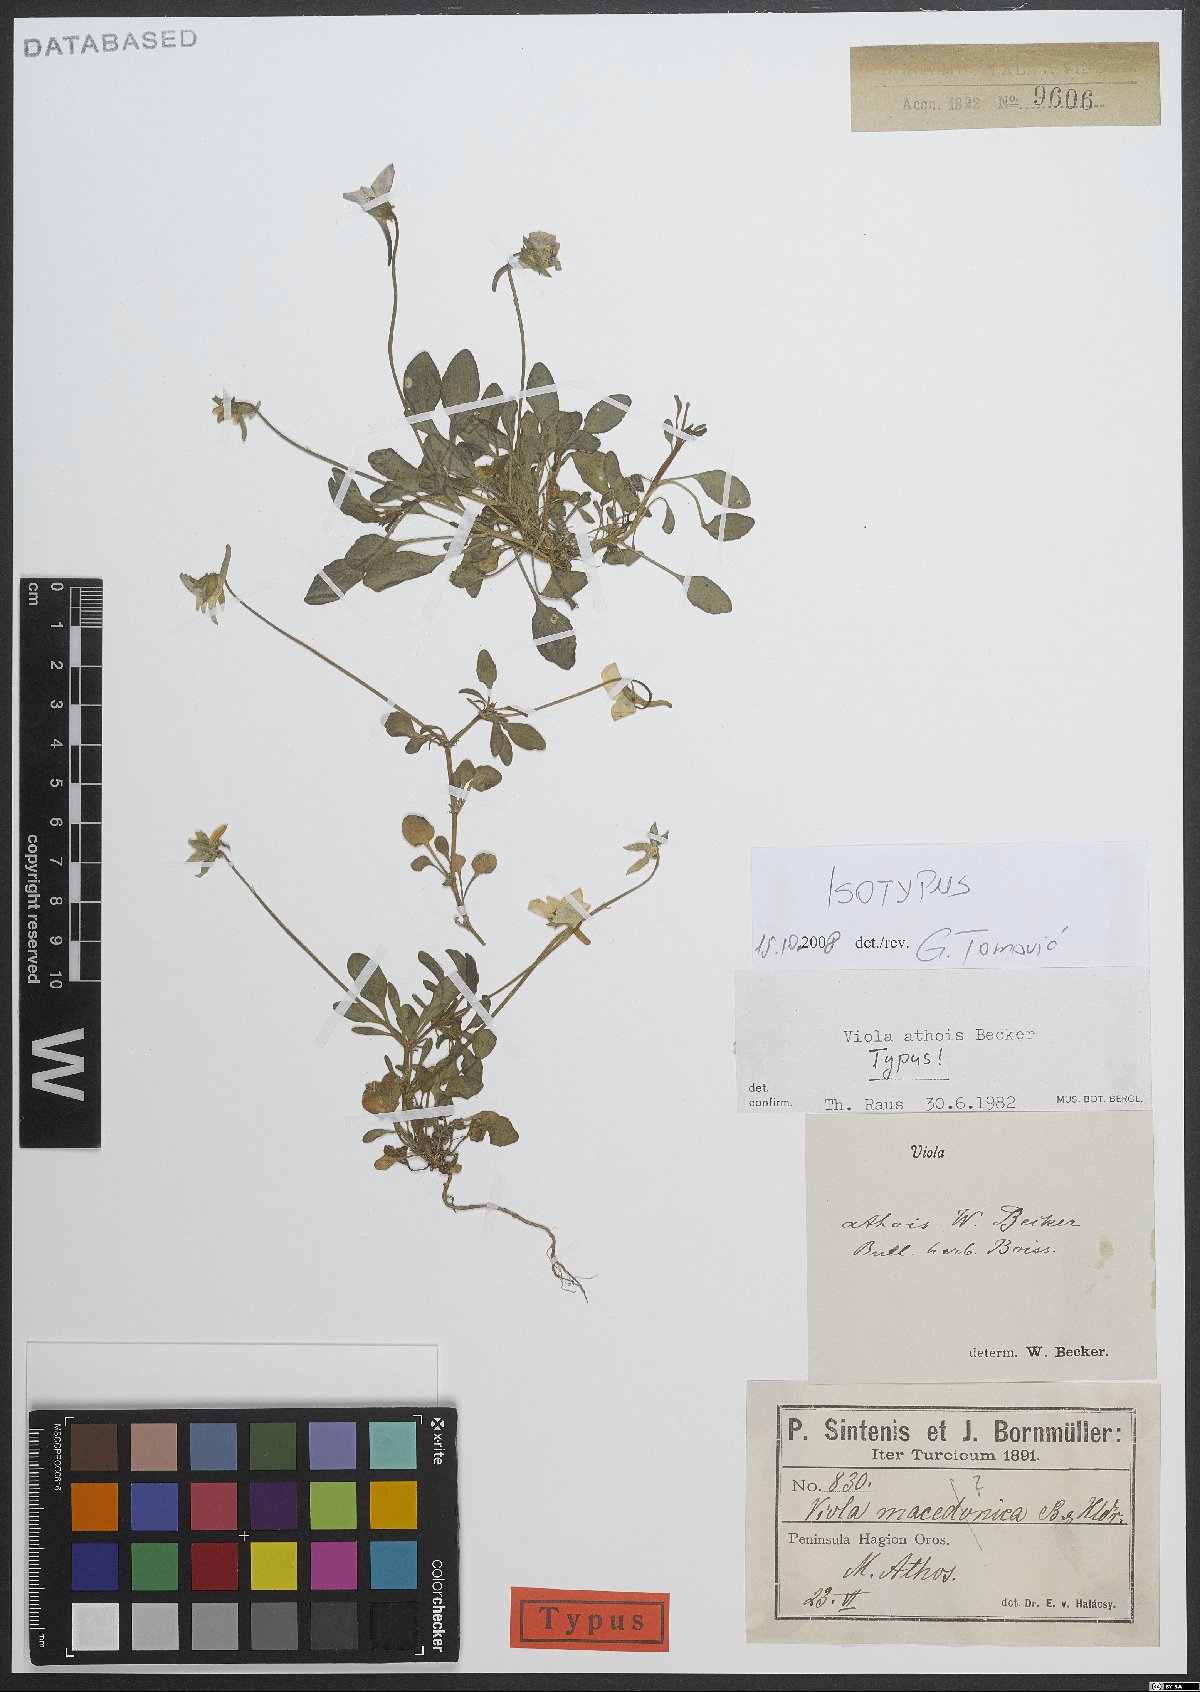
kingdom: Plantae
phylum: Tracheophyta
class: Magnoliopsida
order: Malpighiales
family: Violaceae
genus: Viola
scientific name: Viola athois
